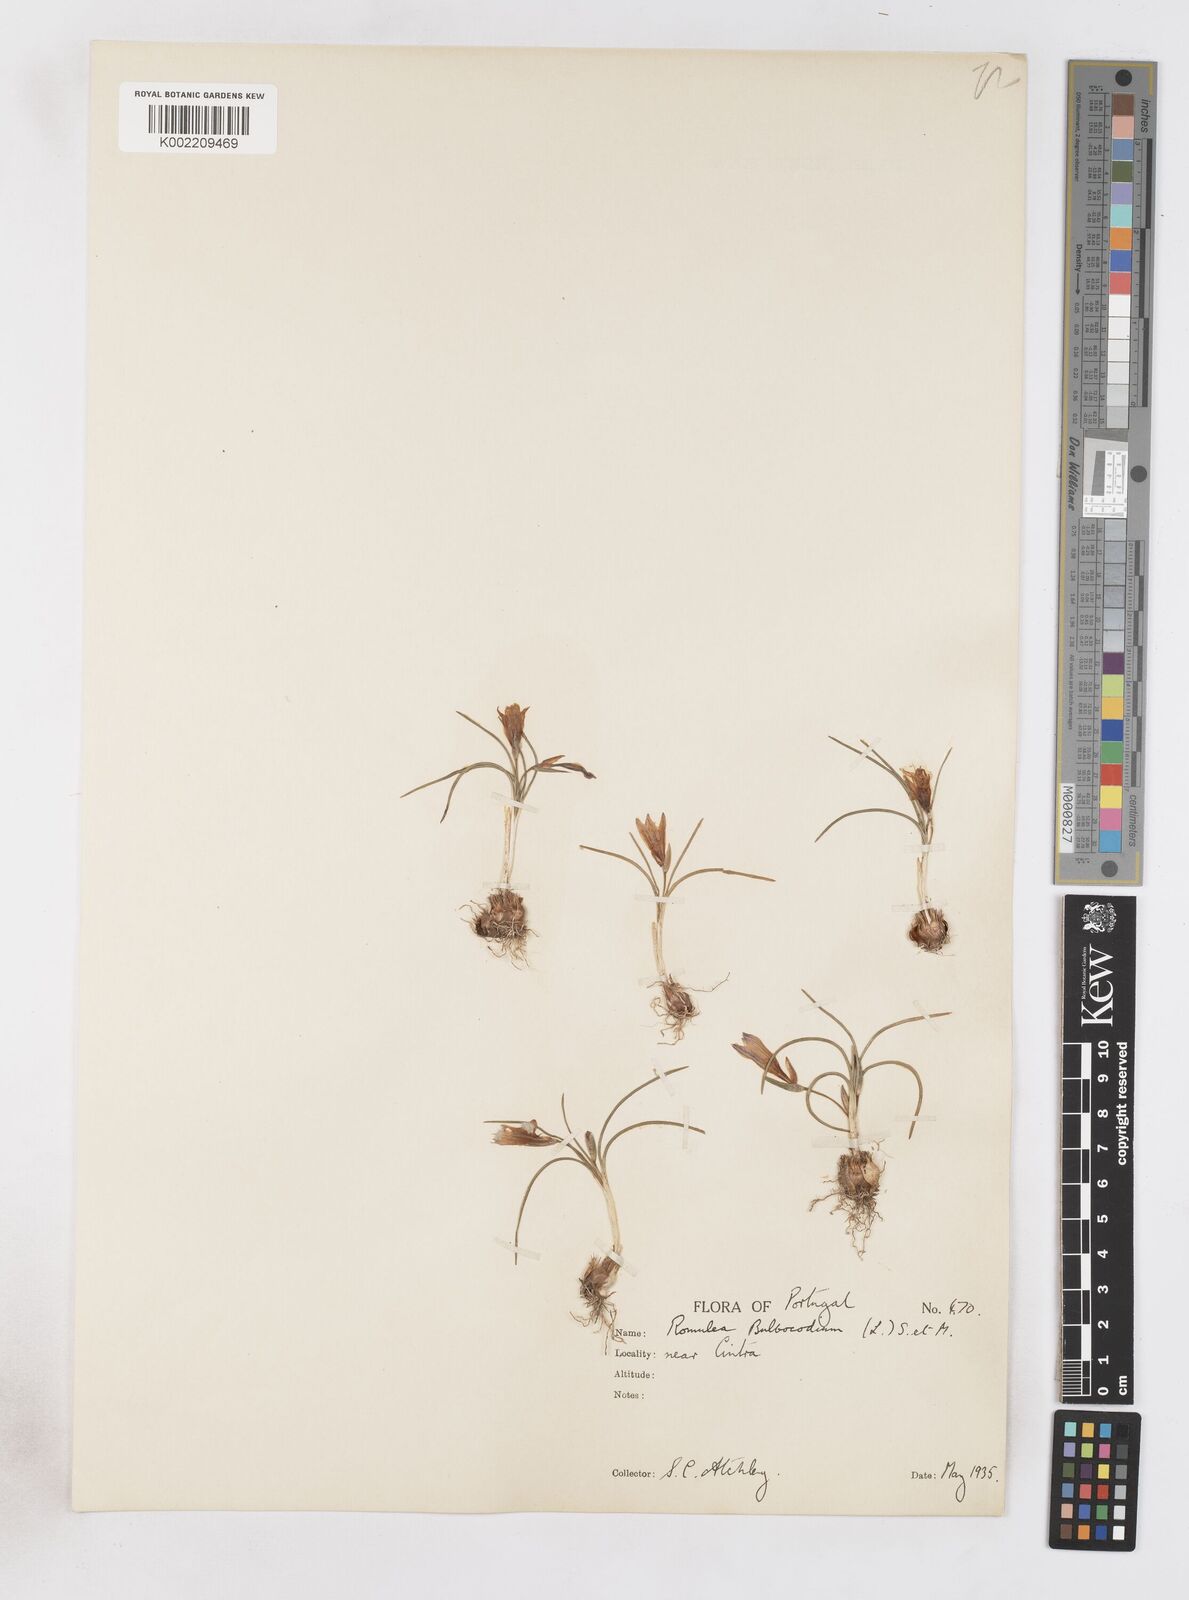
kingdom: Plantae
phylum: Tracheophyta
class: Liliopsida
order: Asparagales
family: Iridaceae
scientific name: Iridaceae
